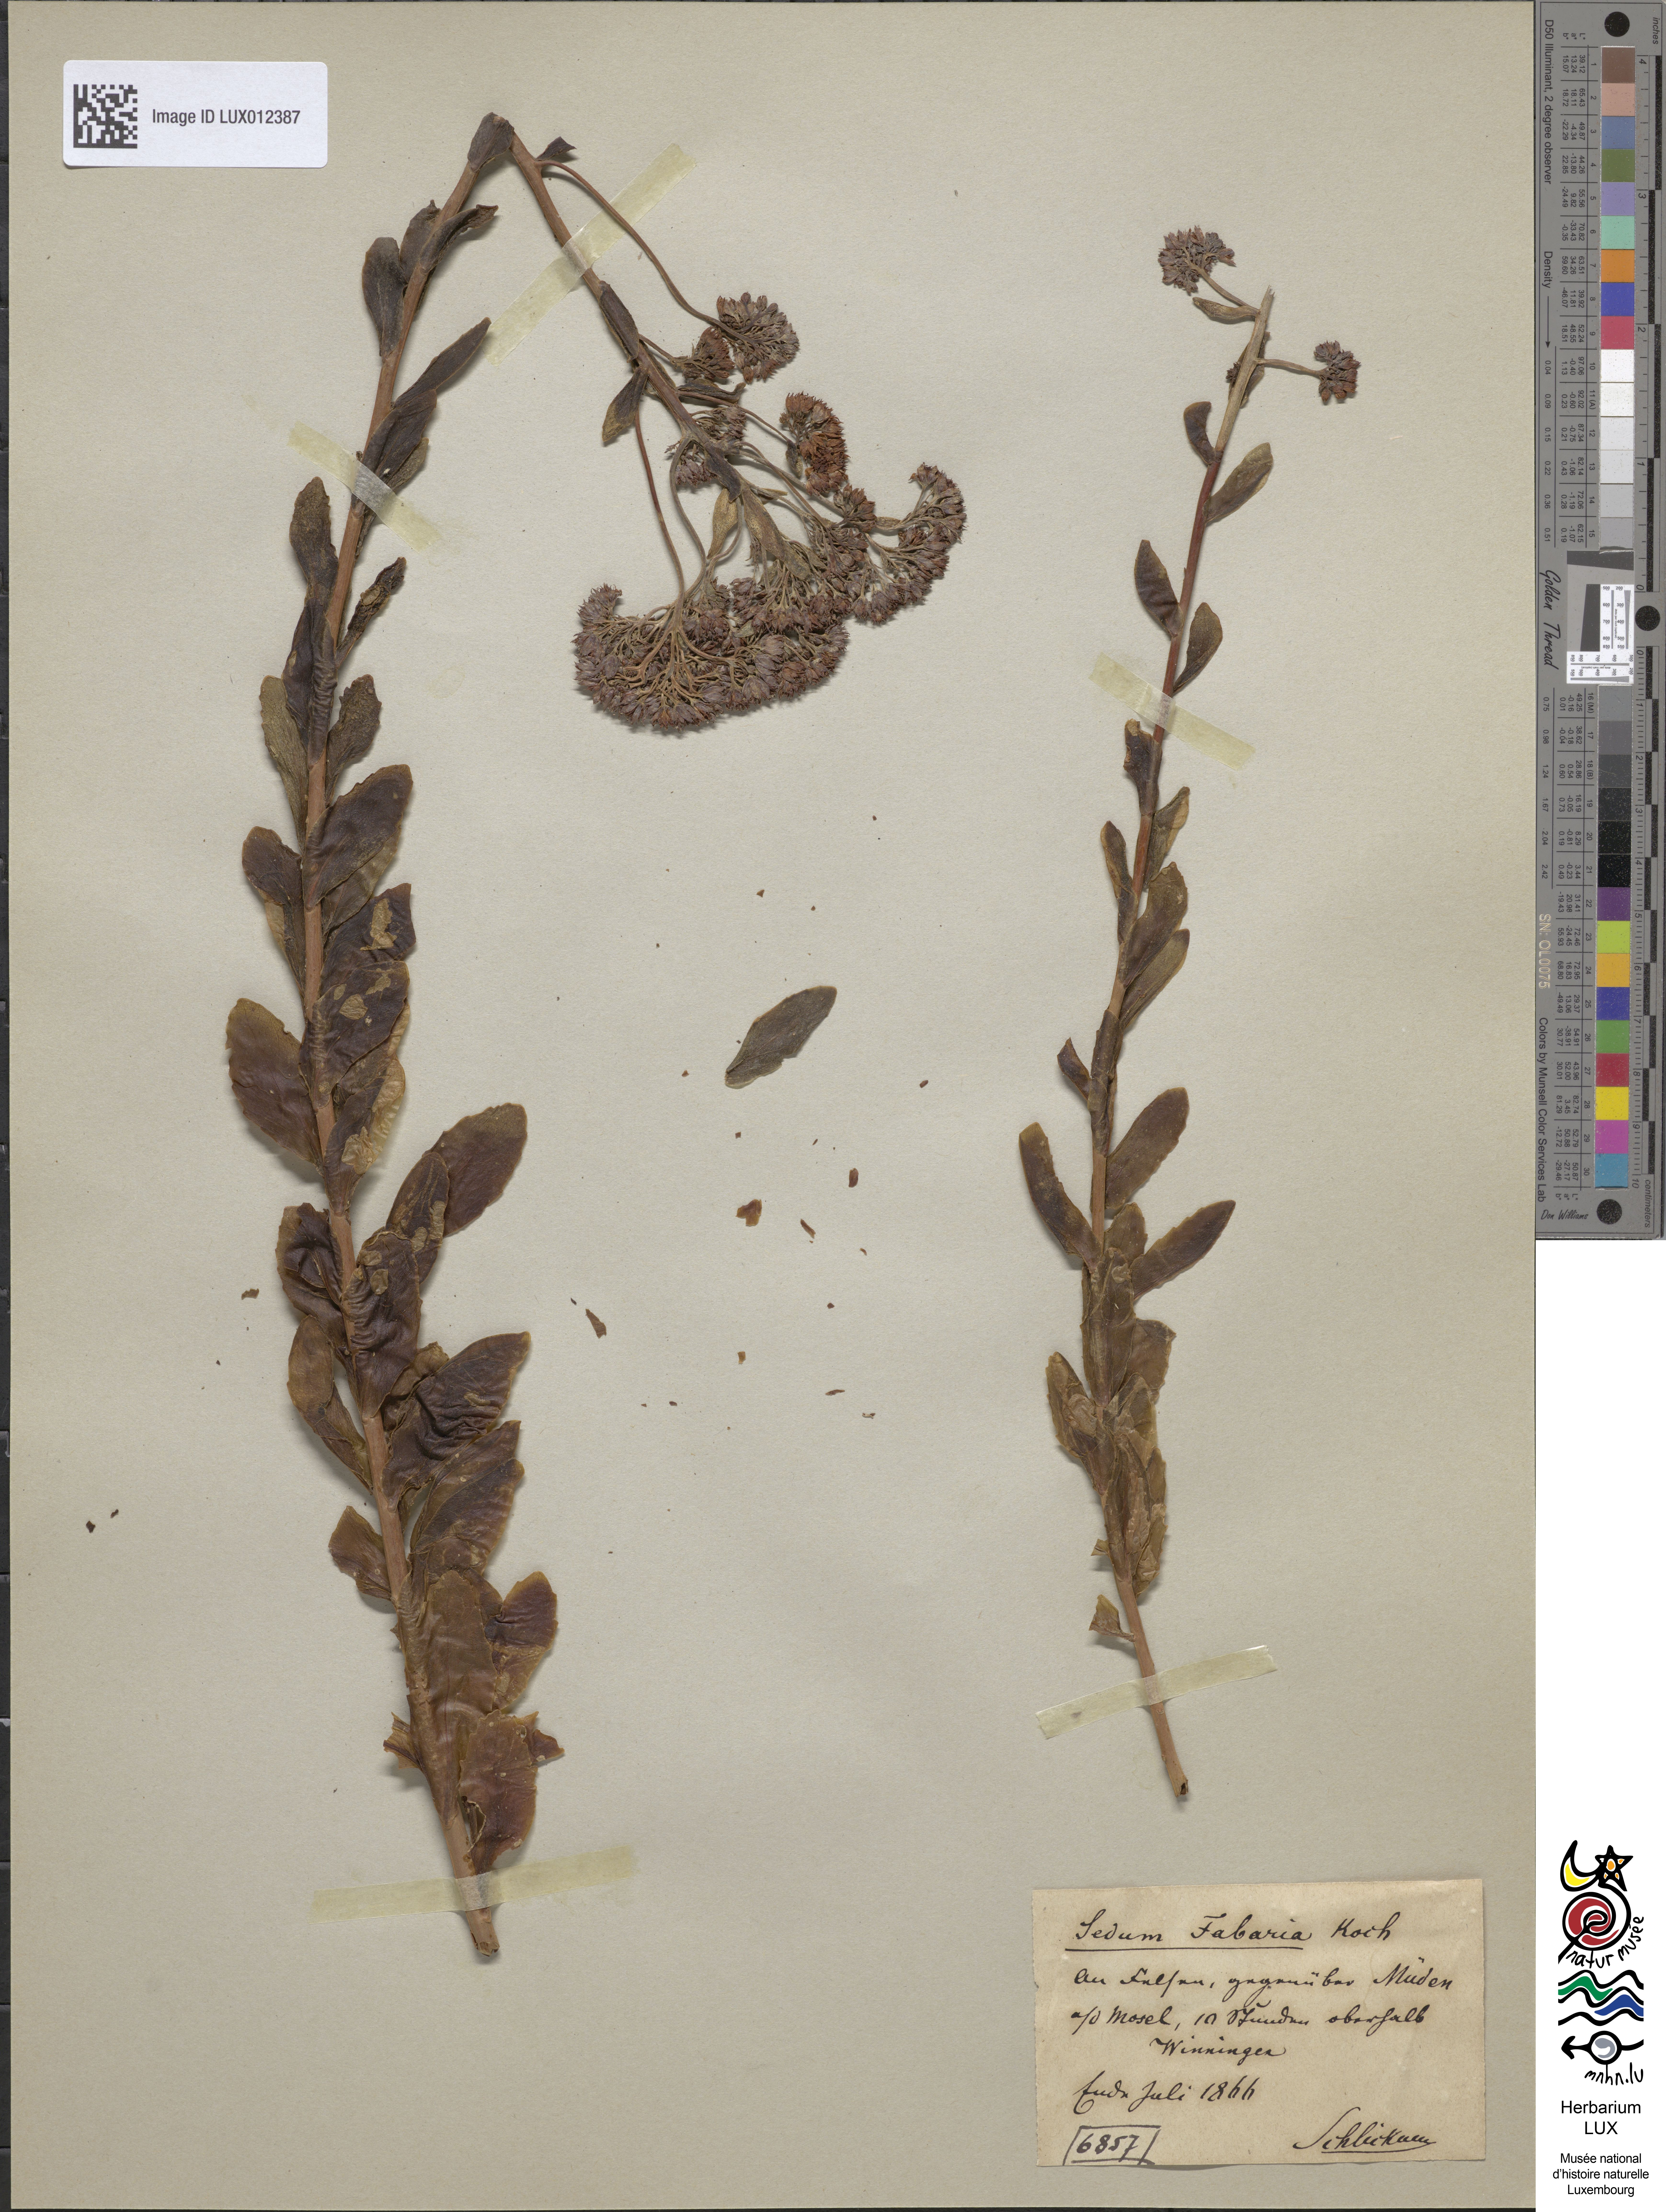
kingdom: Plantae
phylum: Tracheophyta
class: Magnoliopsida
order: Saxifragales
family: Crassulaceae
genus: Hylotelephium
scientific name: Hylotelephium vulgare
